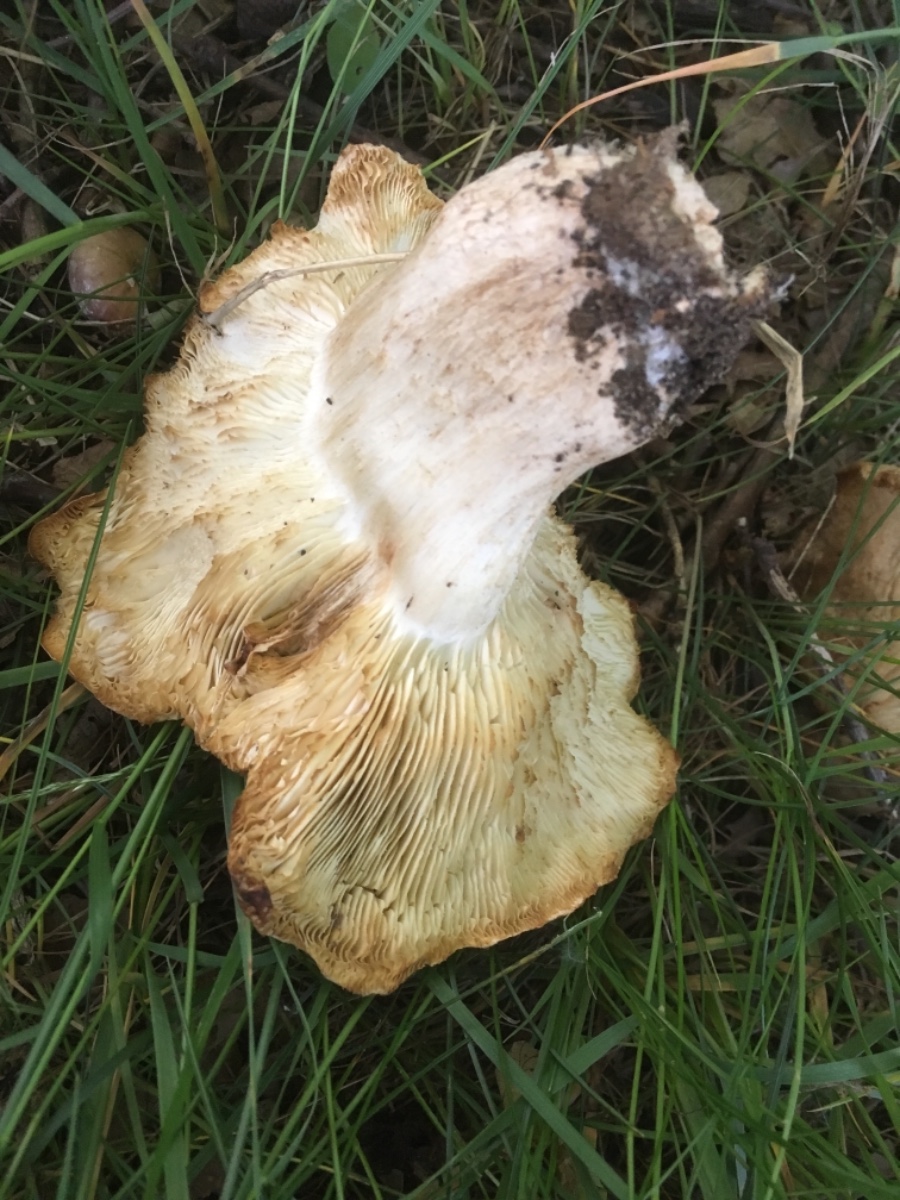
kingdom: Fungi
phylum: Basidiomycota
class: Agaricomycetes
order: Agaricales
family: Lyophyllaceae
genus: Calocybe
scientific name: Calocybe gambosa
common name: vårmusseron
